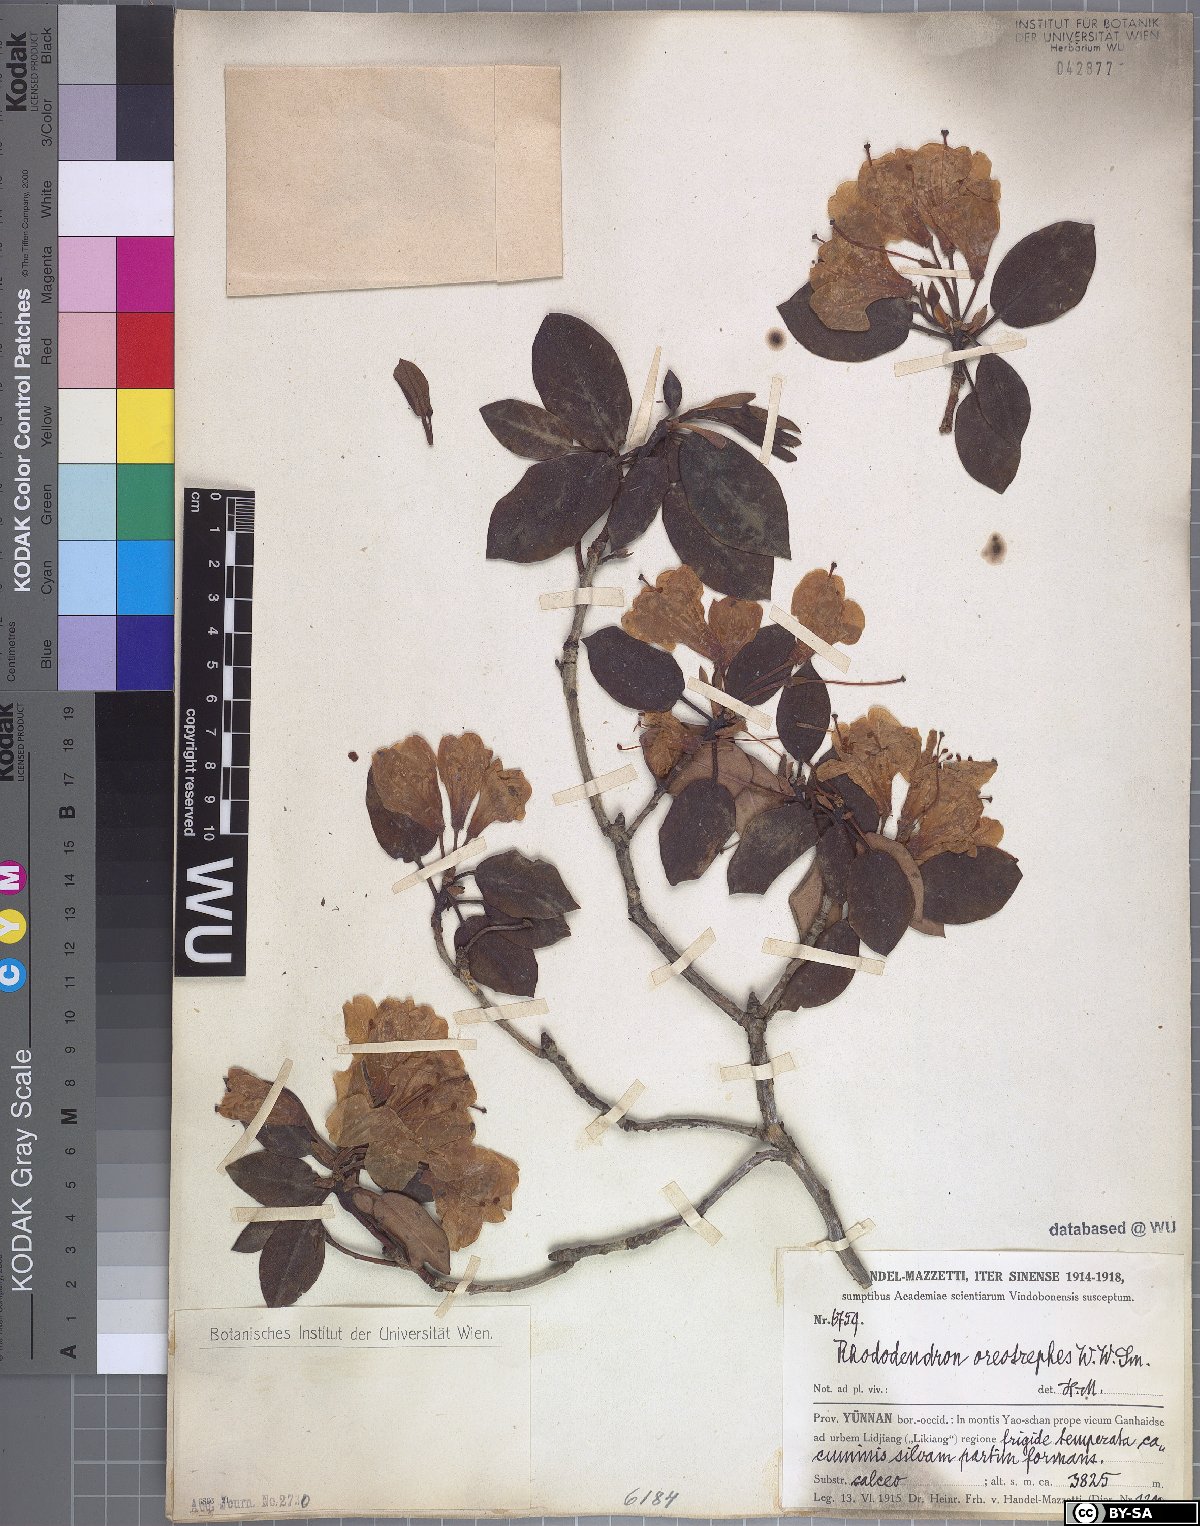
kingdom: Plantae
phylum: Tracheophyta
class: Magnoliopsida
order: Ericales
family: Ericaceae
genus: Rhododendron
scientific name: Rhododendron oreotrephes
